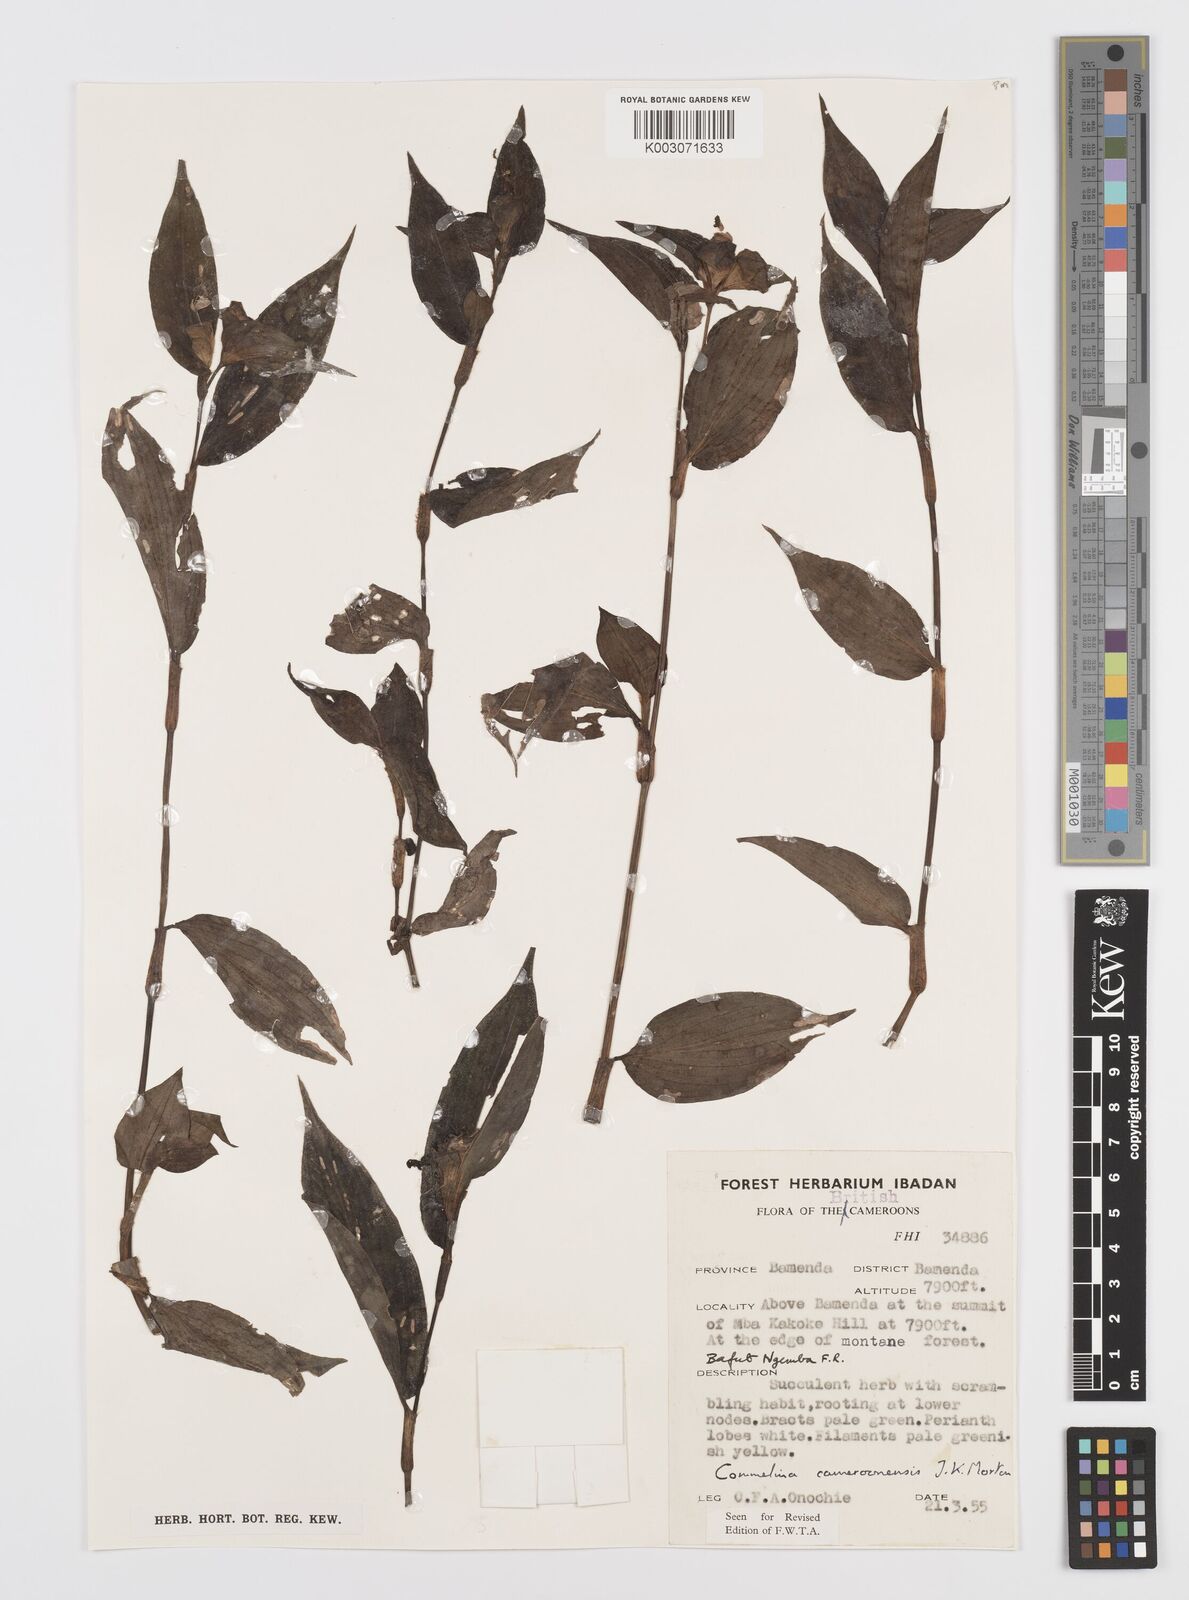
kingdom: Plantae
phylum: Tracheophyta
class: Liliopsida
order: Commelinales
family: Commelinaceae
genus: Commelina
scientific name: Commelina cameroonensis
